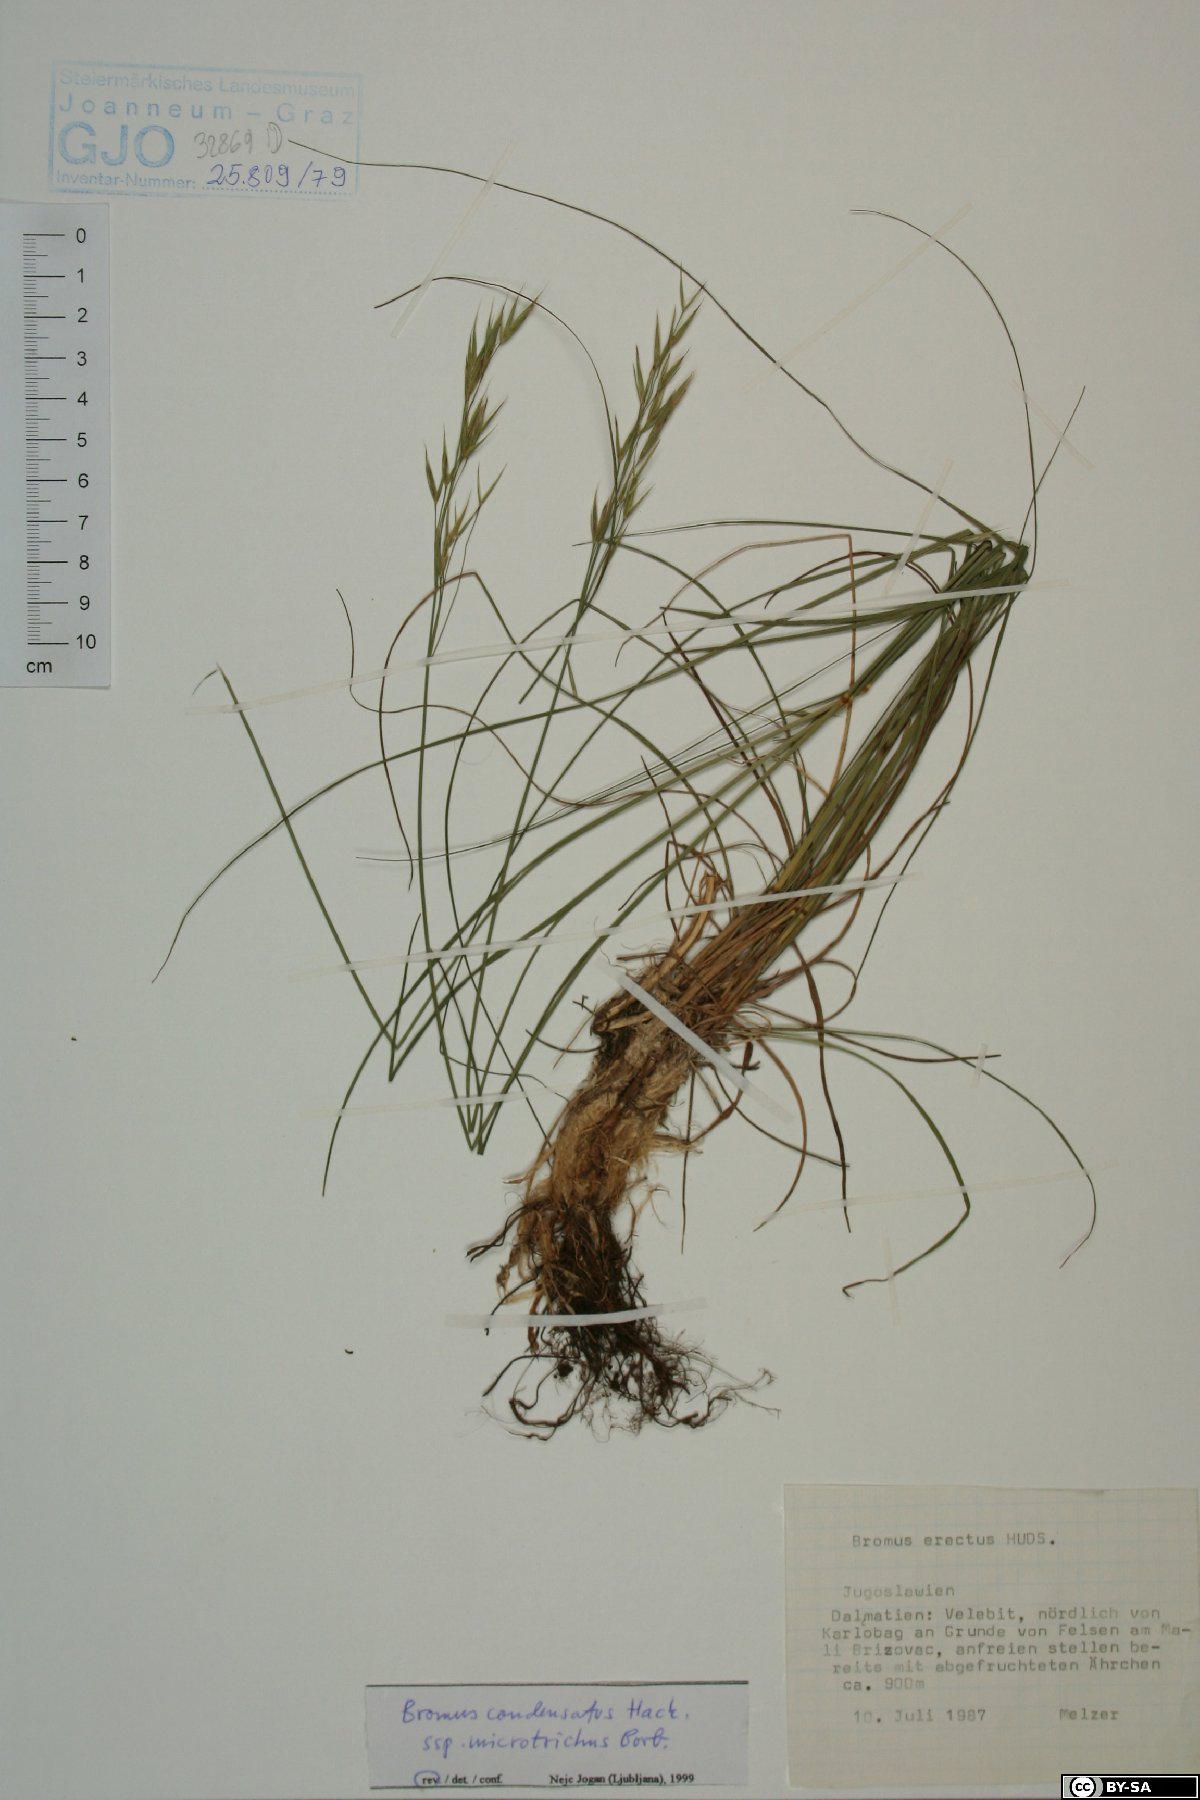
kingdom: Plantae
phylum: Tracheophyta
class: Liliopsida
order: Poales
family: Poaceae
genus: Bromus
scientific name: Bromus condensatus
